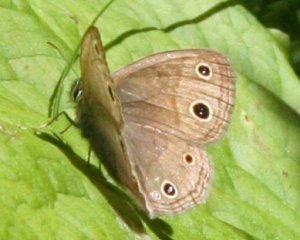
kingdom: Animalia
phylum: Arthropoda
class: Insecta
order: Lepidoptera
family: Nymphalidae
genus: Euptychia
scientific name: Euptychia cymela
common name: Little Wood Satyr
